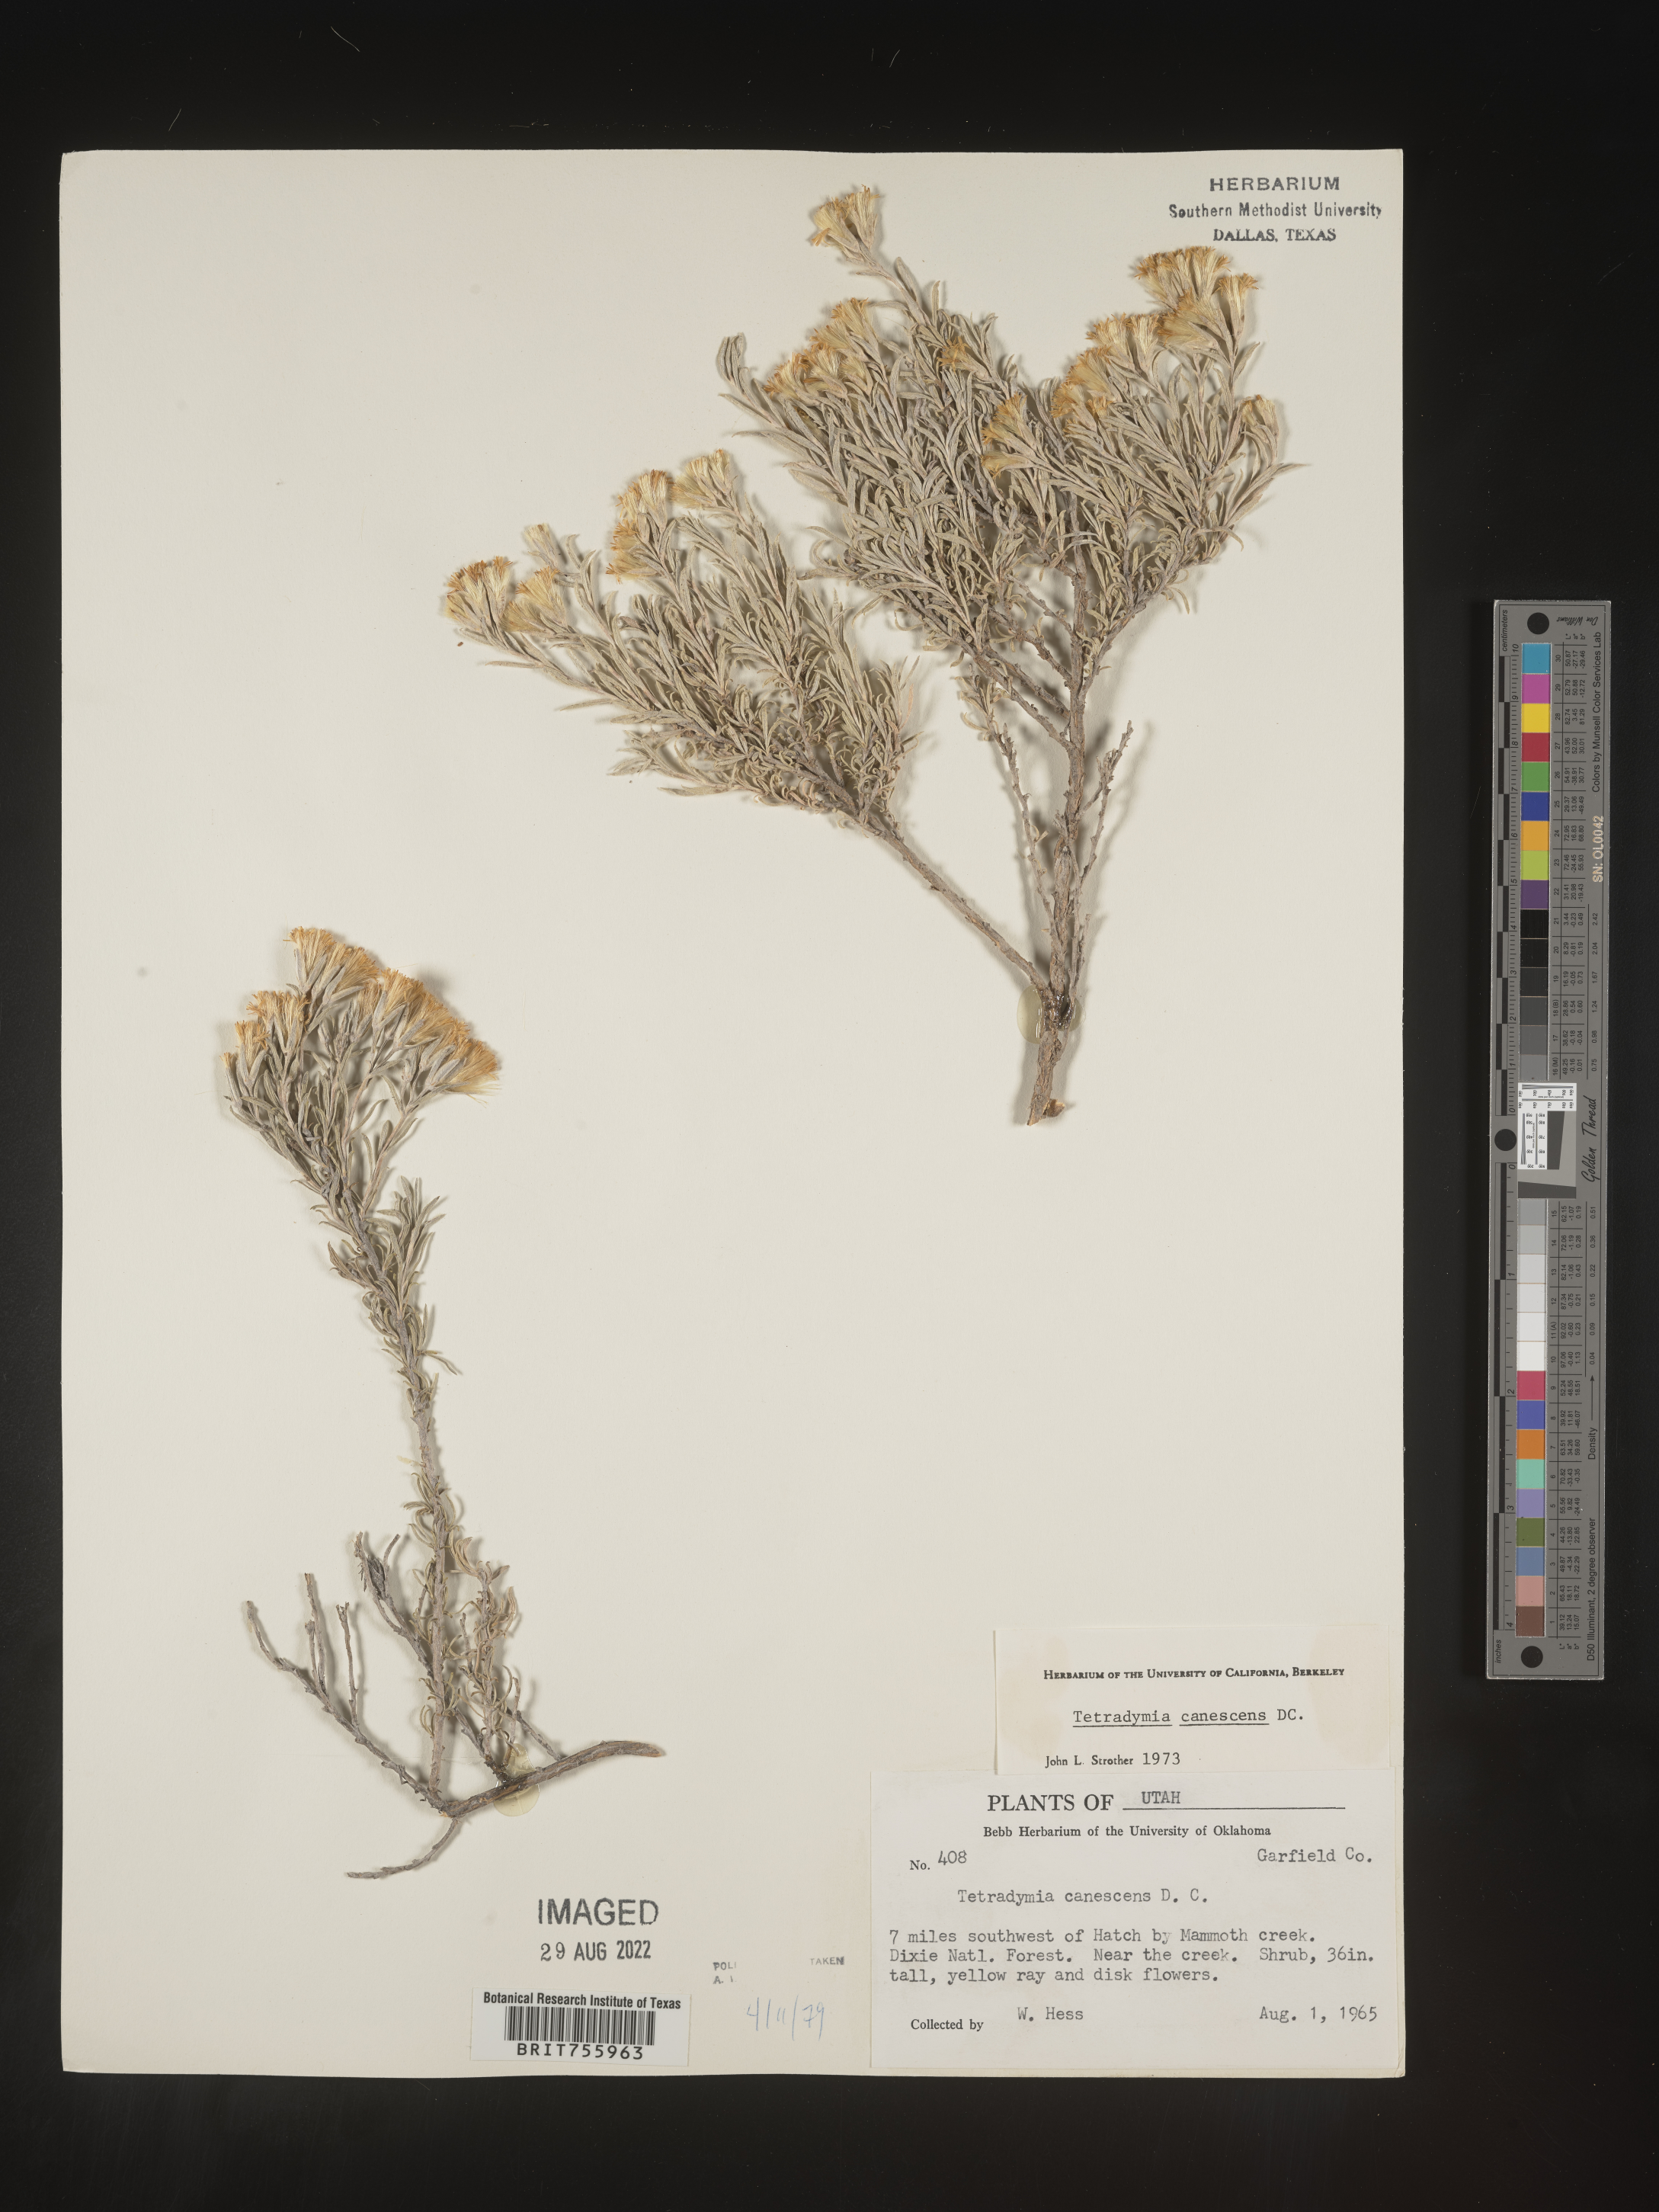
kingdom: Plantae
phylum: Tracheophyta
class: Magnoliopsida
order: Asterales
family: Asteraceae
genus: Tetradymia
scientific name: Tetradymia canescens
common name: Spineless horsebrush
